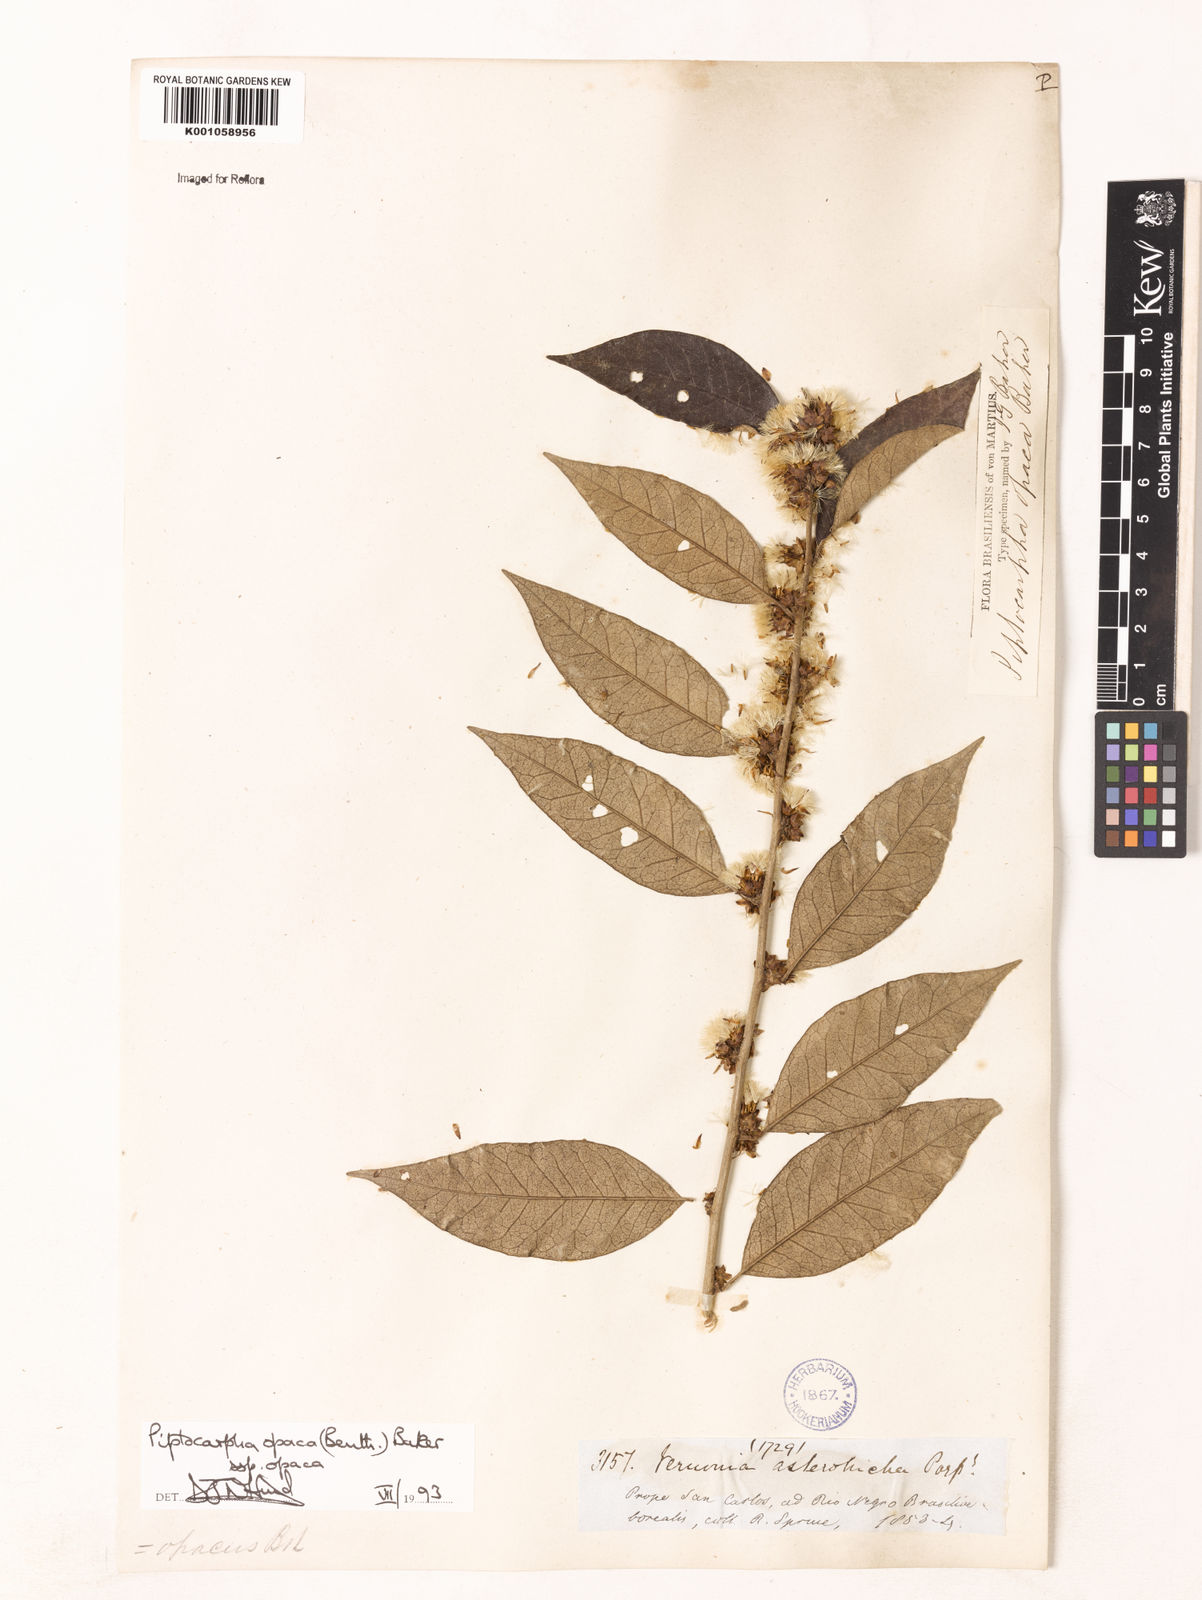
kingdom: Plantae
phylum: Tracheophyta
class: Magnoliopsida
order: Asterales
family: Asteraceae
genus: Piptocarpha
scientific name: Piptocarpha opaca
